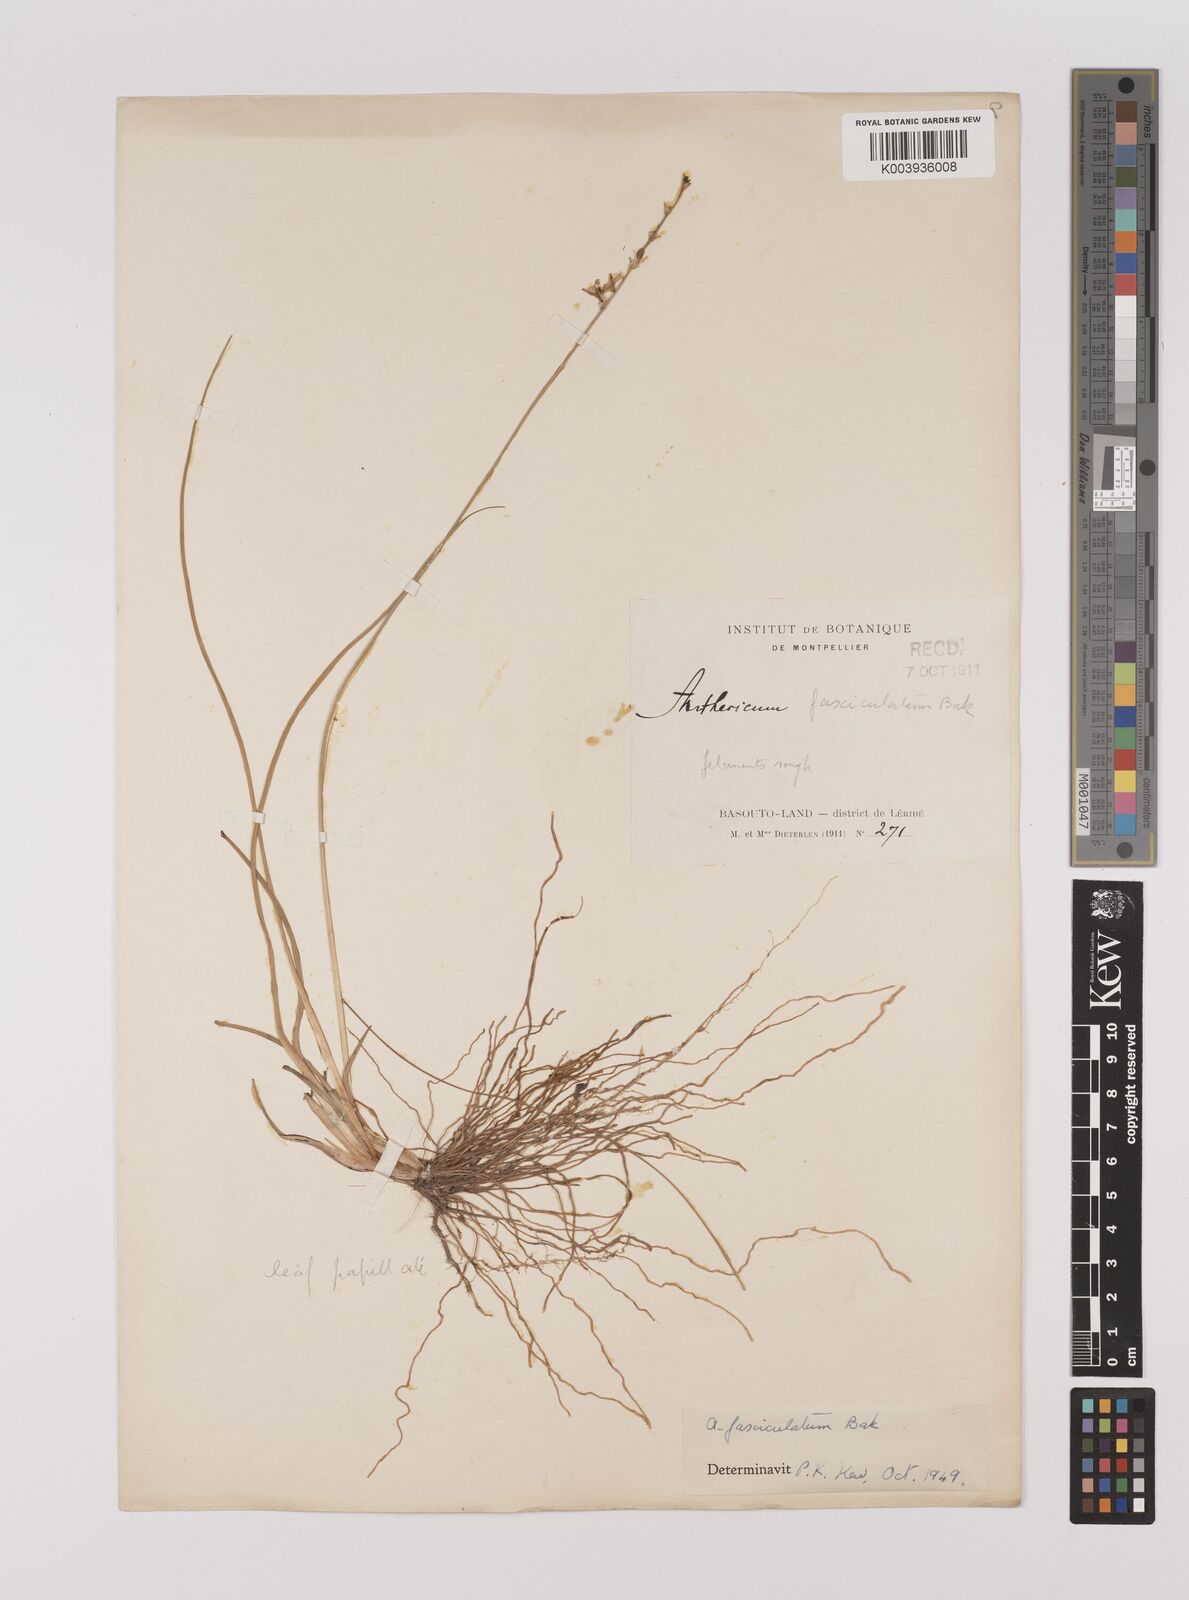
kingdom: Plantae
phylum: Tracheophyta
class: Liliopsida
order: Asparagales
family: Asparagaceae
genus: Chlorophytum
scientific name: Chlorophytum cooperi
